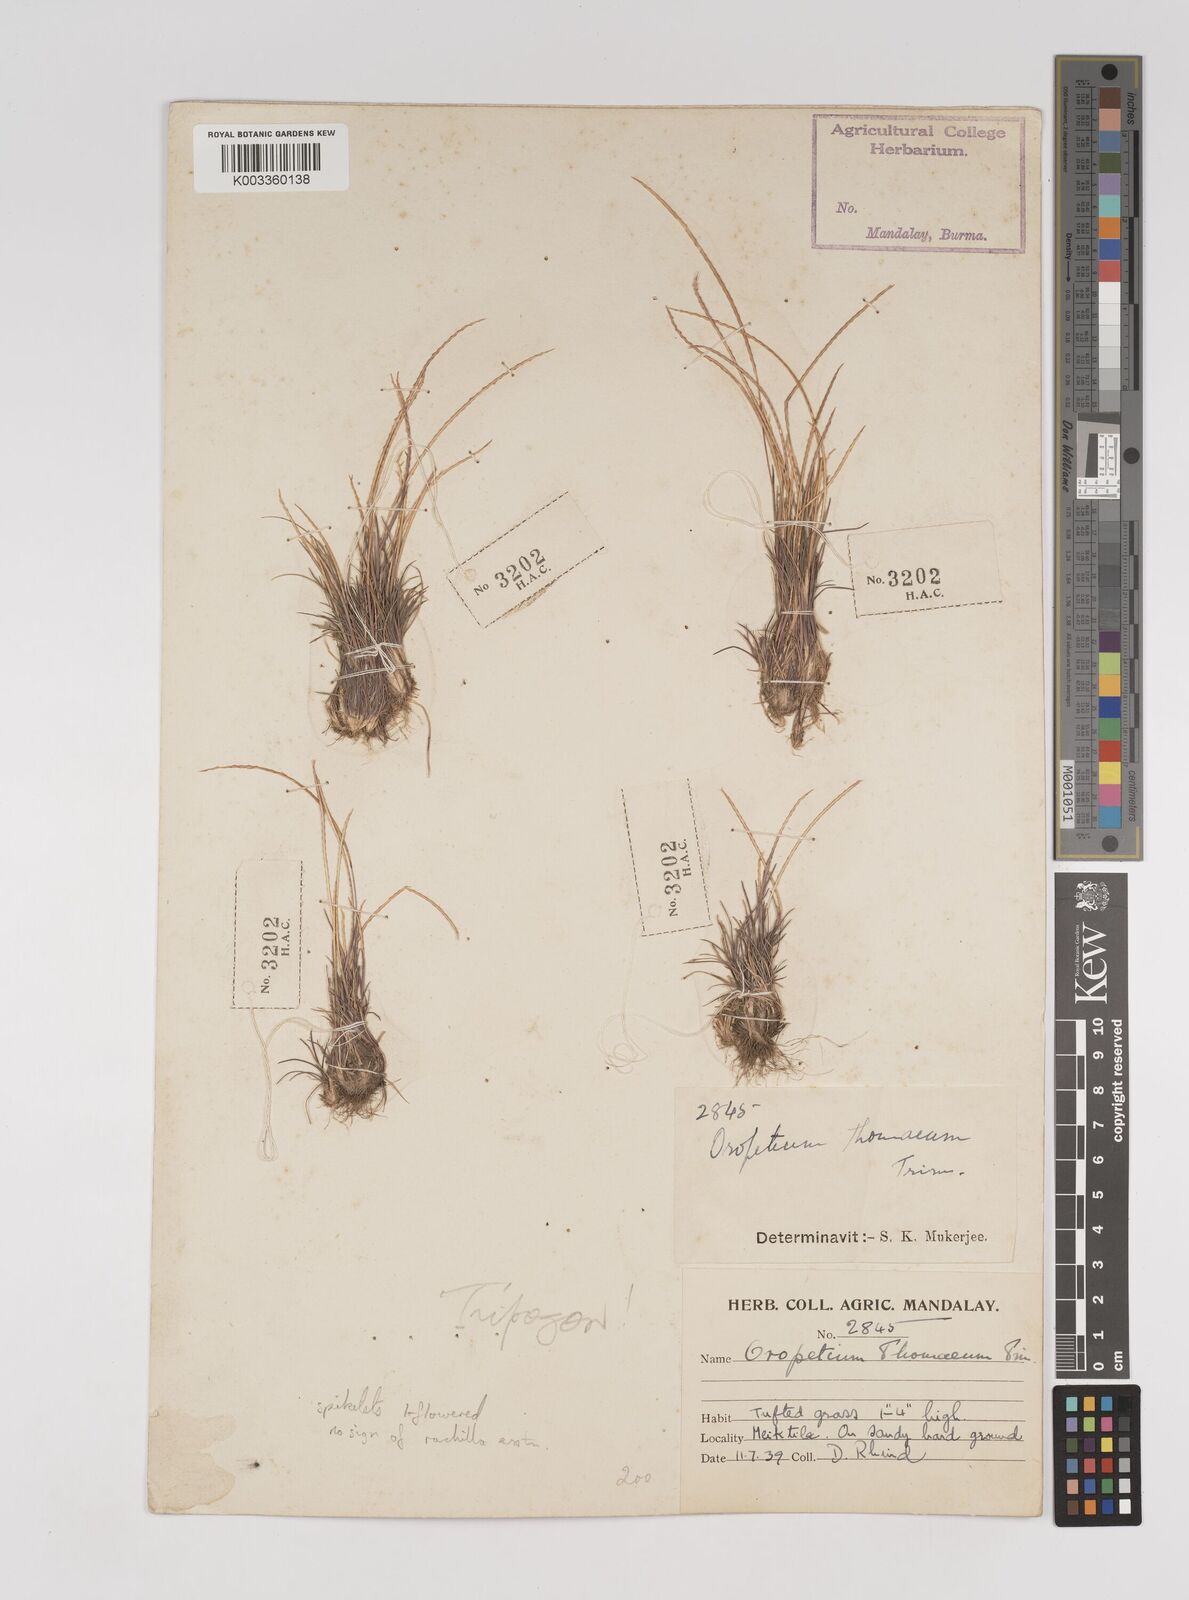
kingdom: Plantae
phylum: Tracheophyta
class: Liliopsida
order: Poales
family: Poaceae
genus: Oropetium
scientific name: Oropetium thomaeum
